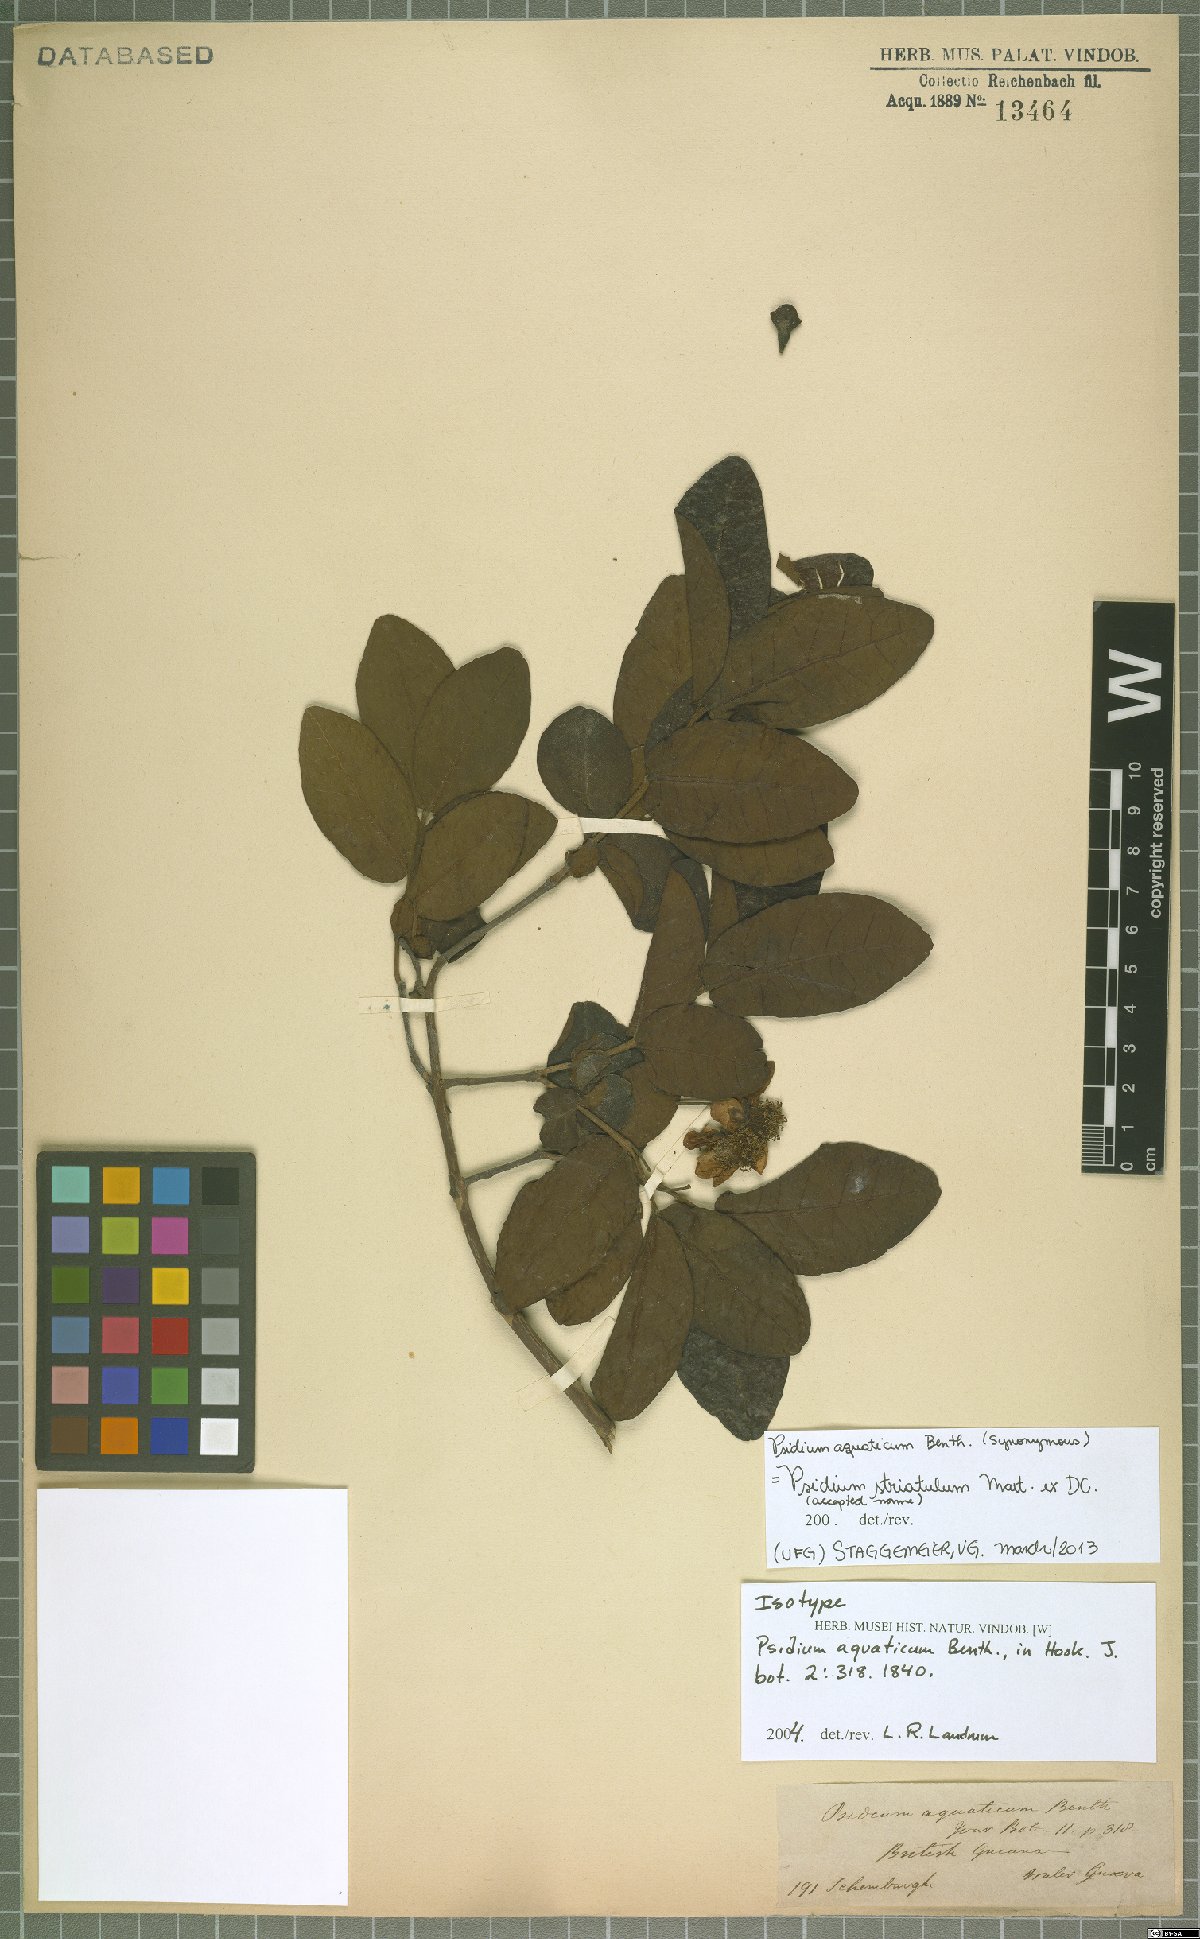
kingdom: Plantae
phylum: Tracheophyta
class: Magnoliopsida
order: Myrtales
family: Myrtaceae
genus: Psidium
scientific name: Psidium striatulum
